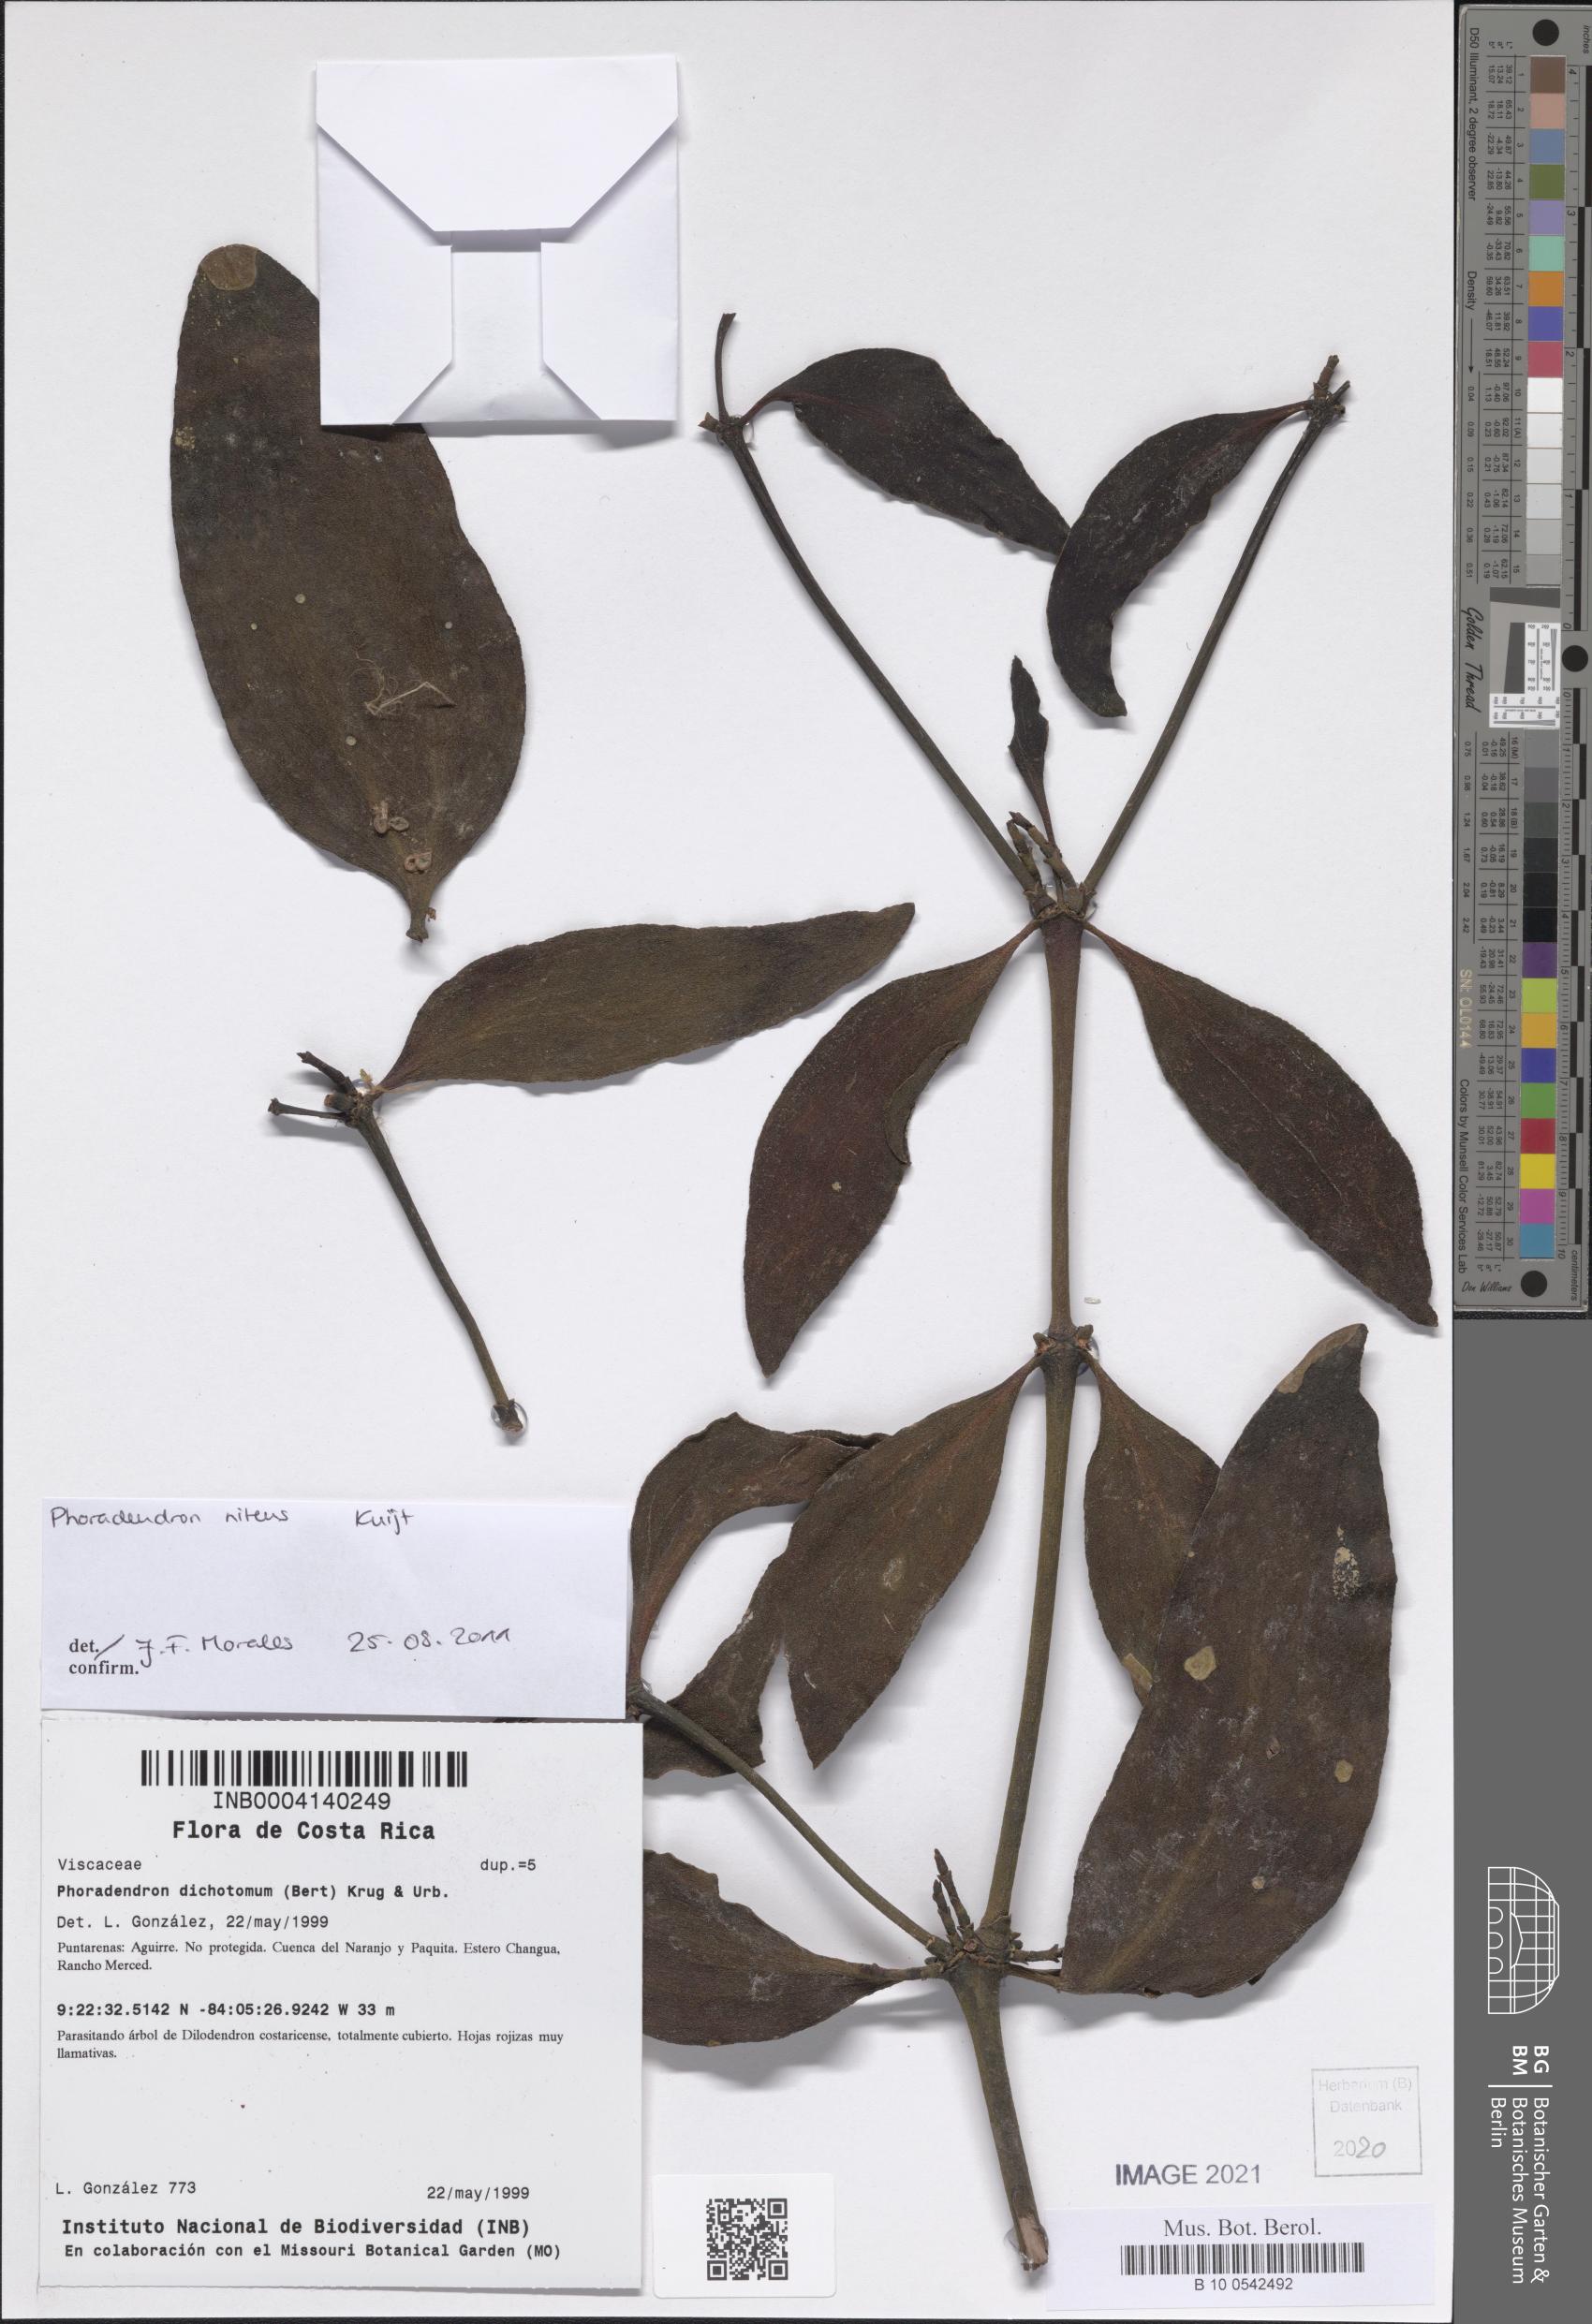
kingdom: Plantae
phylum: Tracheophyta
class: Magnoliopsida
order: Santalales
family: Viscaceae
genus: Phoradendron
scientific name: Phoradendron nitens
